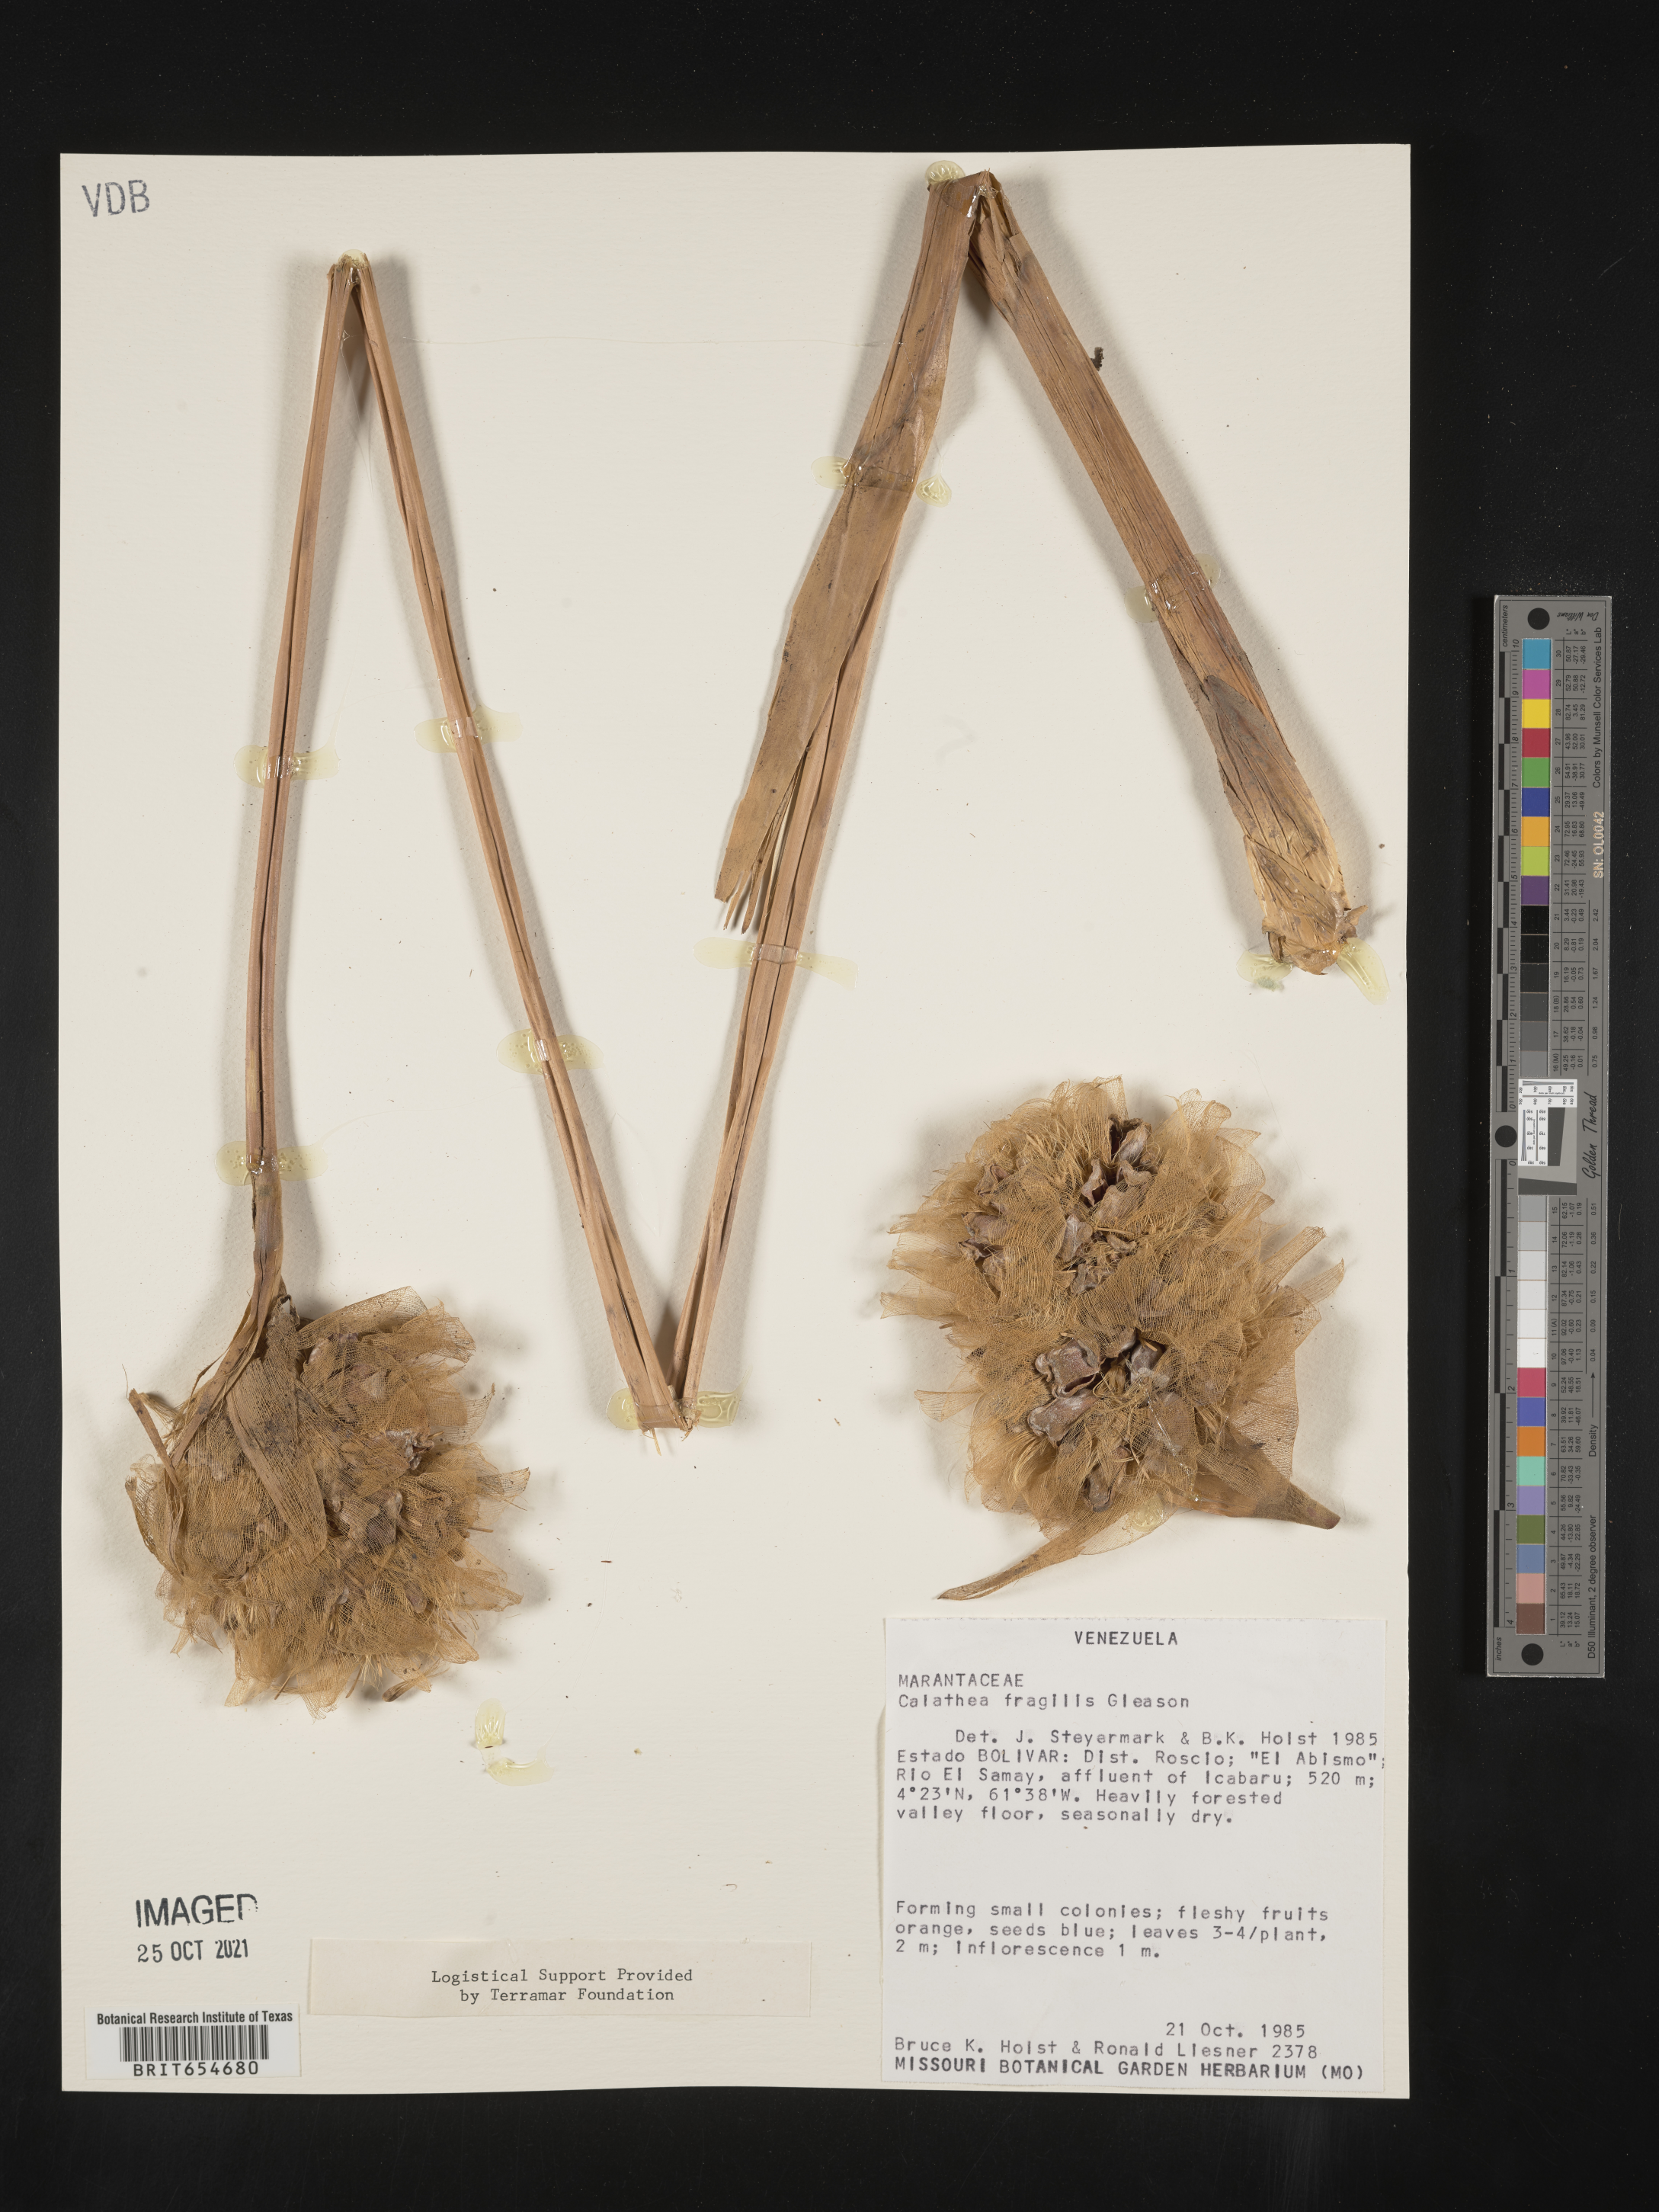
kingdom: Plantae
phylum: Tracheophyta
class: Liliopsida
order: Zingiberales
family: Marantaceae
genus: Calathea
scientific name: Calathea
